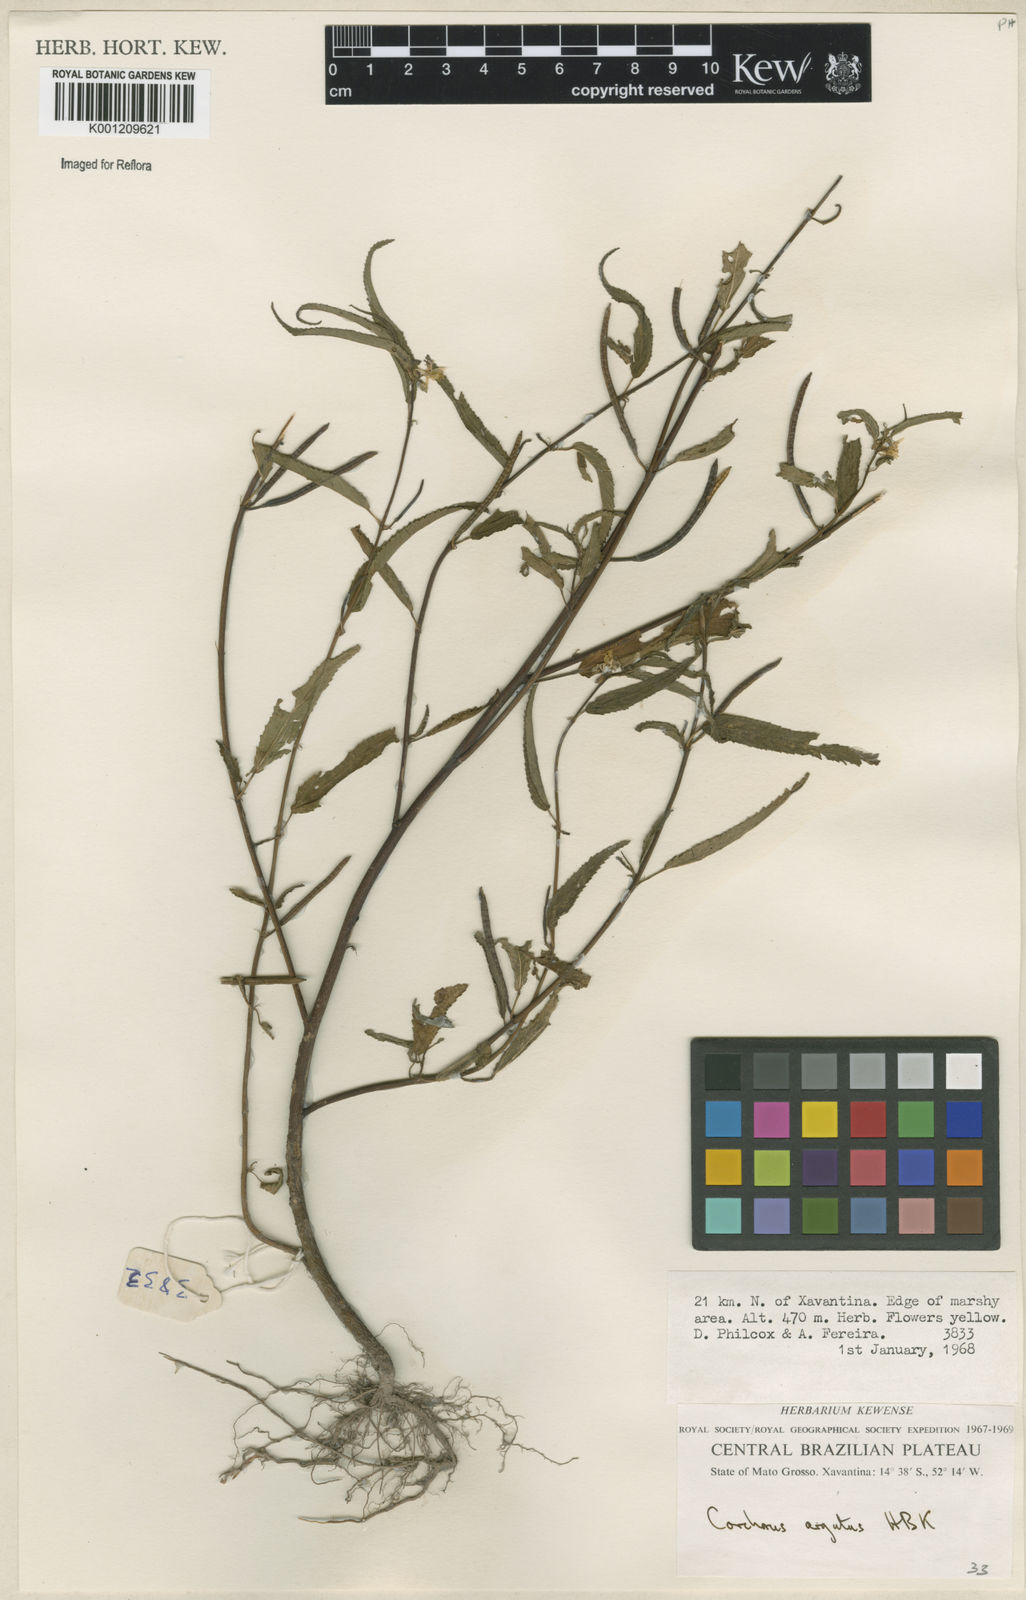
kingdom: Plantae
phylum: Tracheophyta
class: Magnoliopsida
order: Malvales
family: Malvaceae
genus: Corchorus
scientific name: Corchorus argutus
